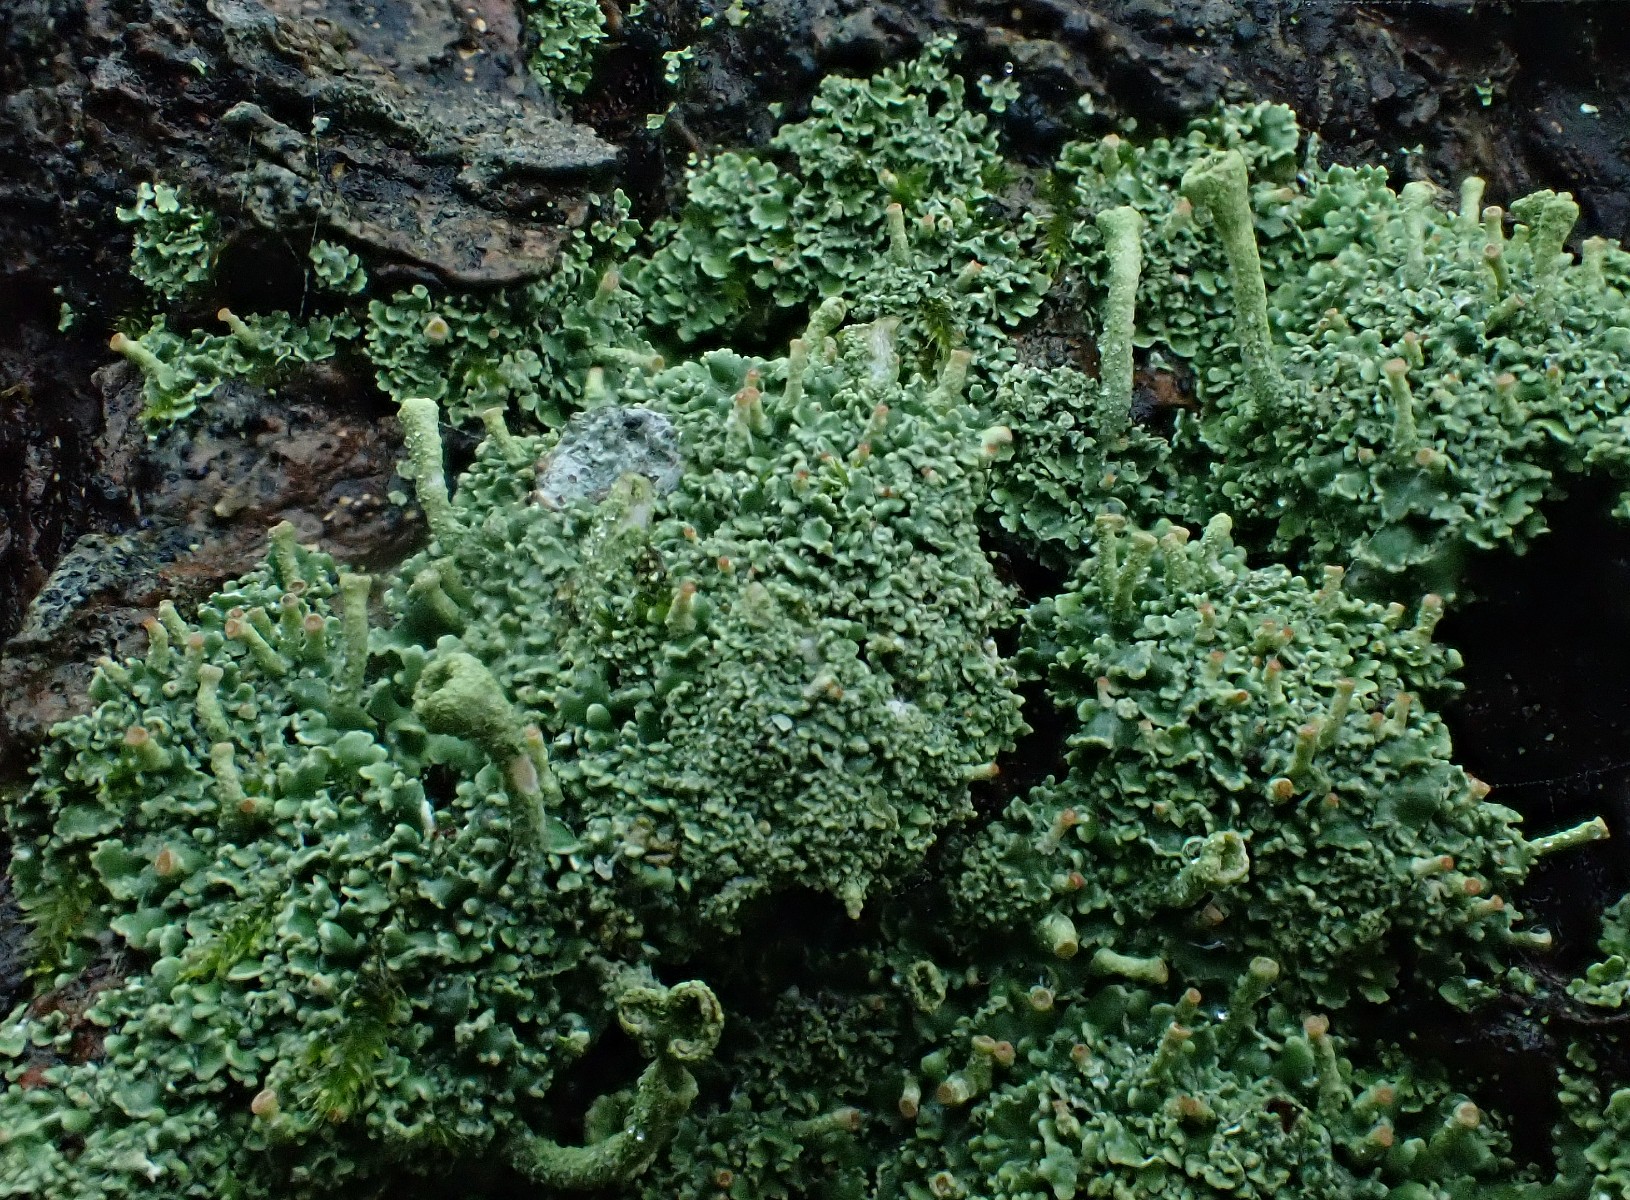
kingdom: Fungi
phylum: Ascomycota
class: Lecanoromycetes
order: Lecanorales
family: Cladoniaceae
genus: Cladonia
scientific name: Cladonia
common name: brungrøn bægerlav
